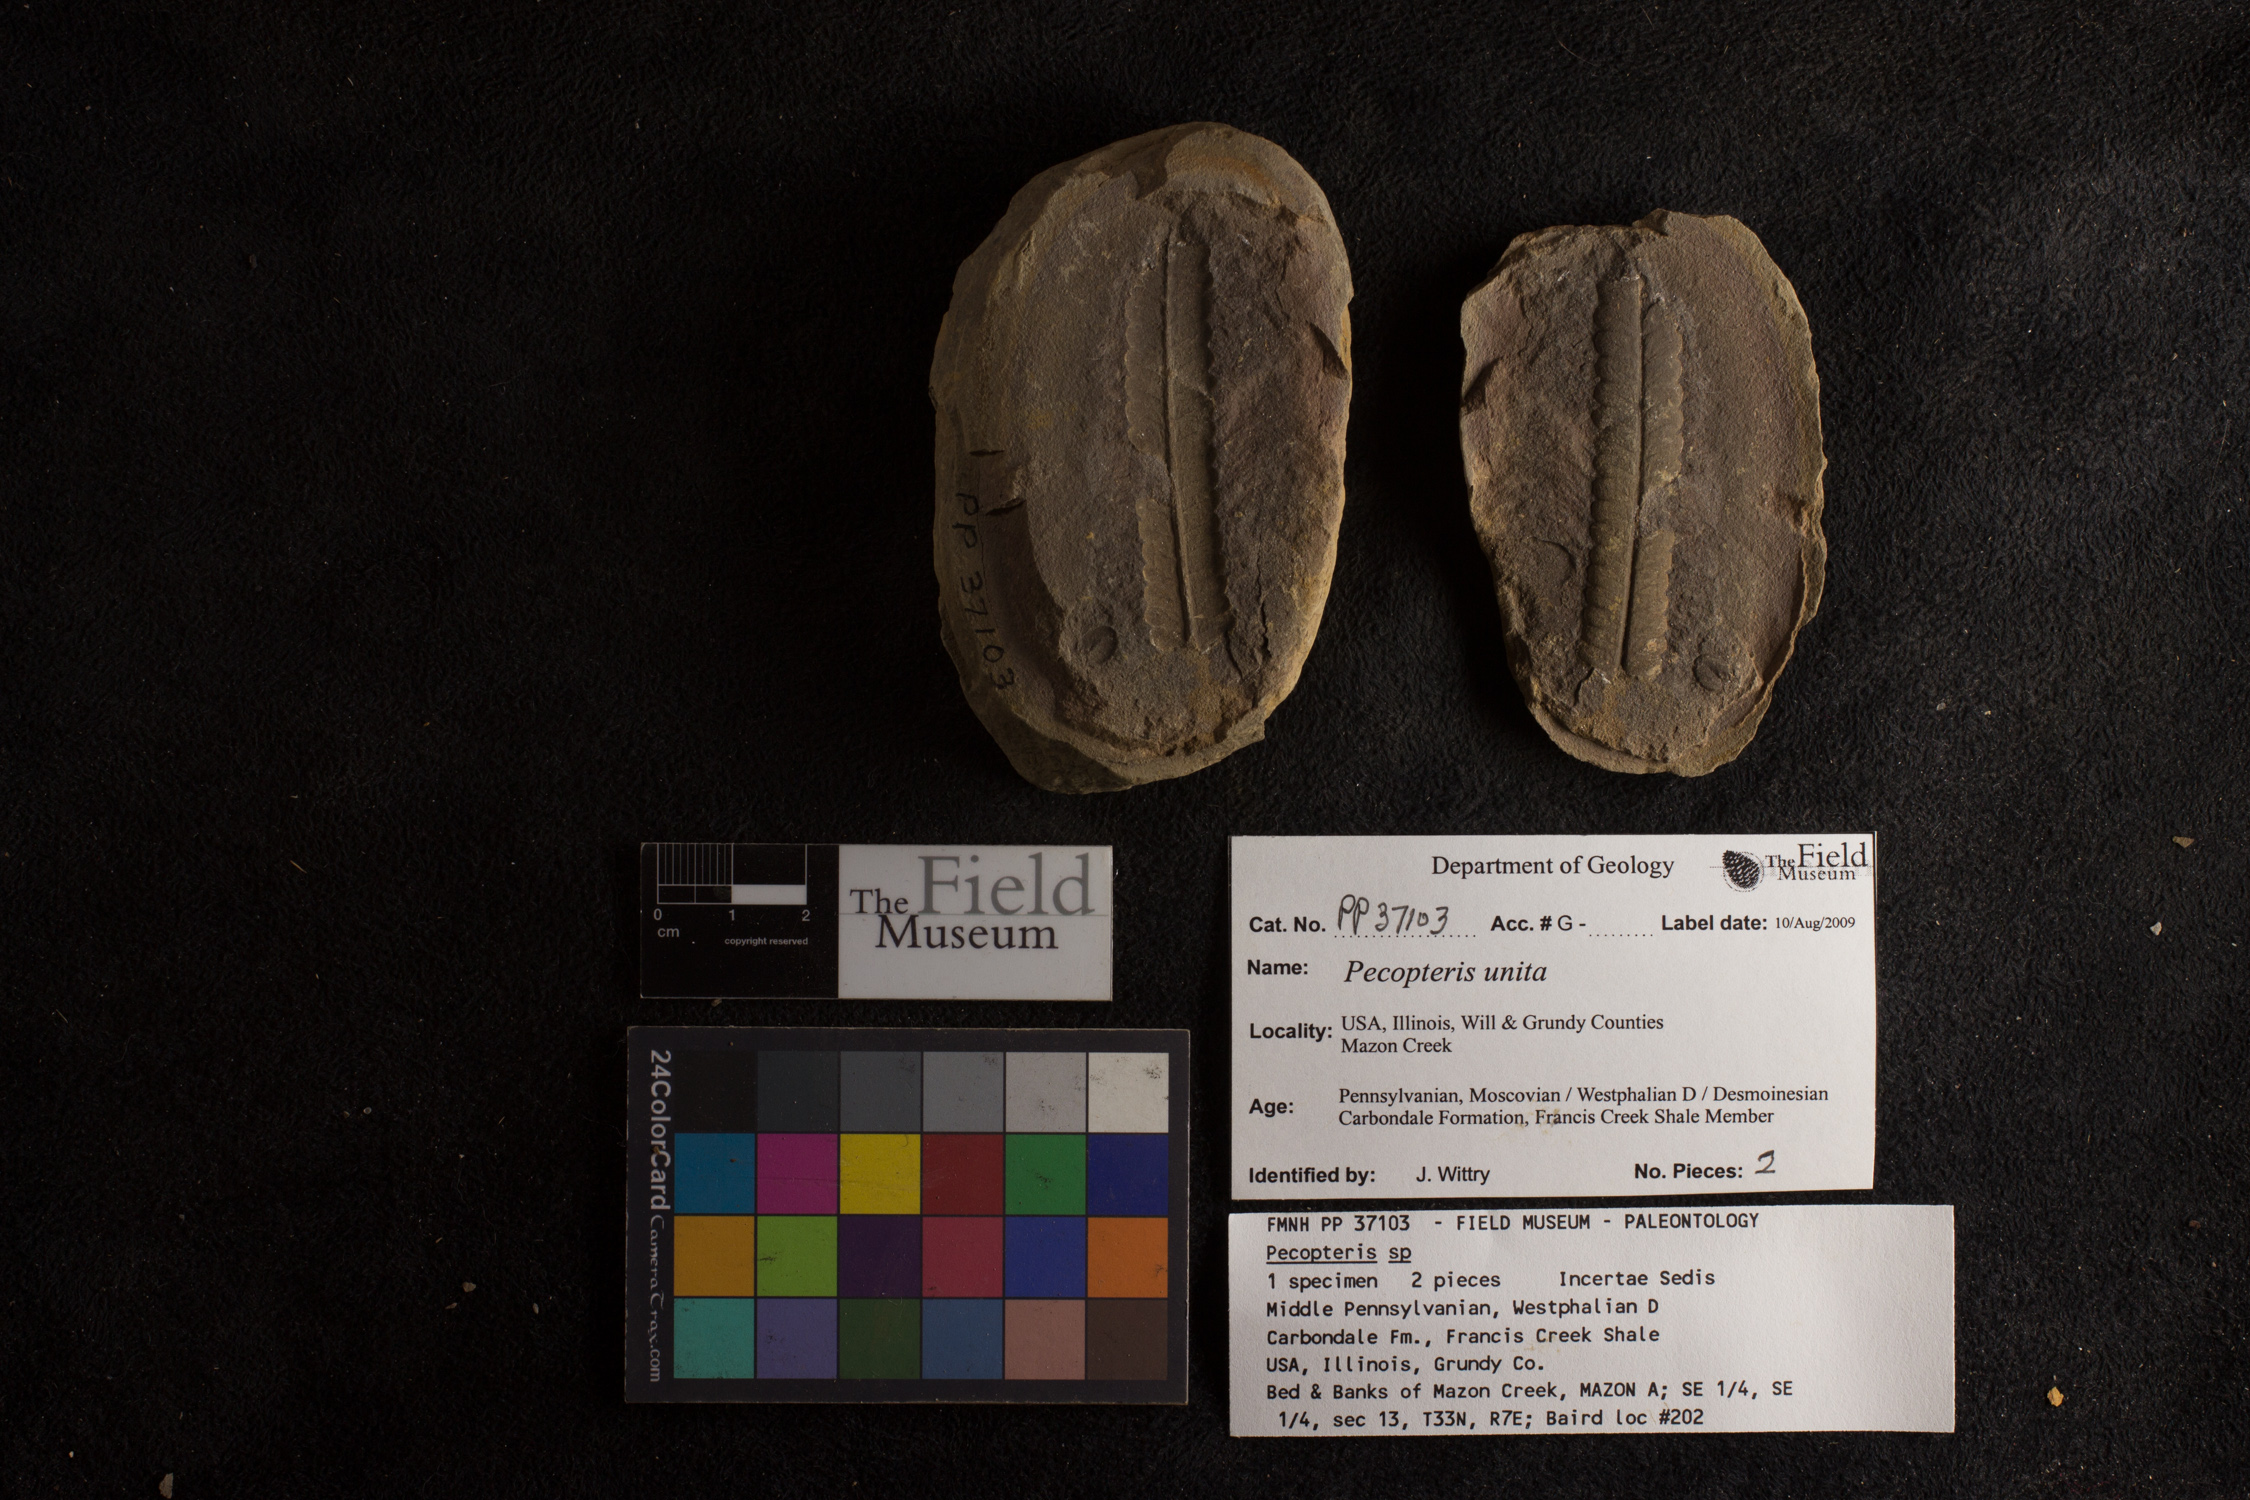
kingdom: Plantae
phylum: Tracheophyta
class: Polypodiopsida
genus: Diplazites
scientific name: Diplazites
